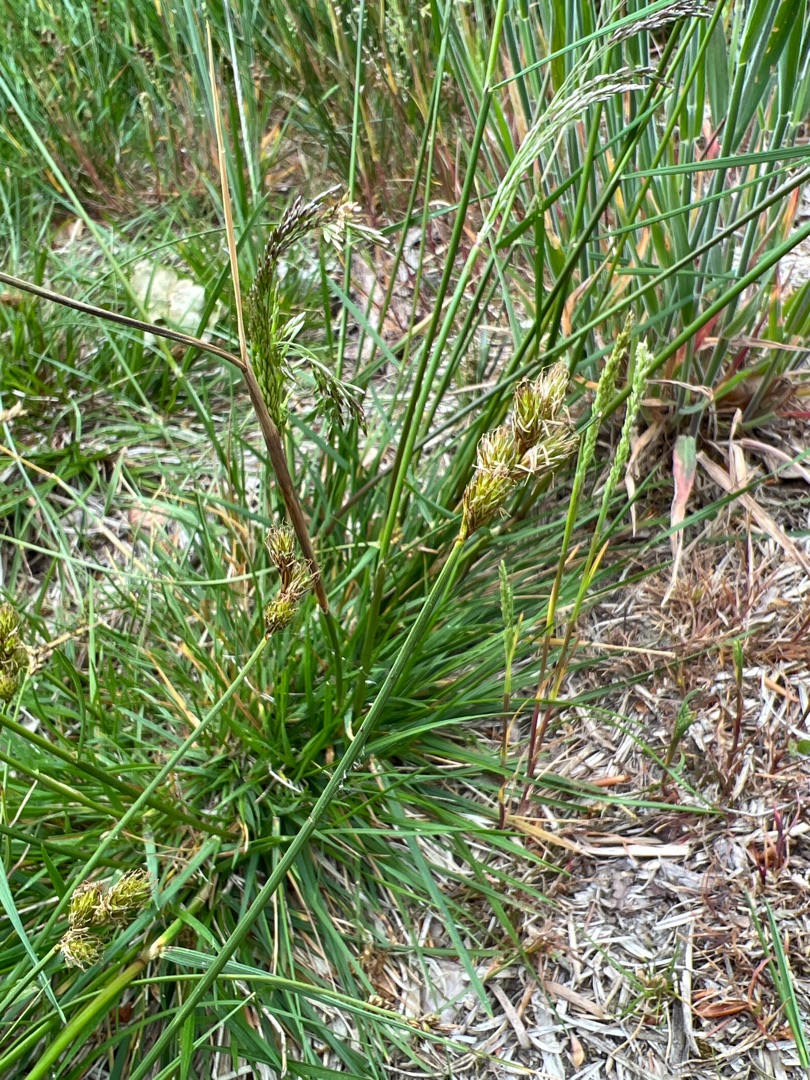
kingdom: Plantae
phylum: Tracheophyta
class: Liliopsida
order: Poales
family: Cyperaceae
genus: Carex
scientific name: Carex leporina
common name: Hare-star
